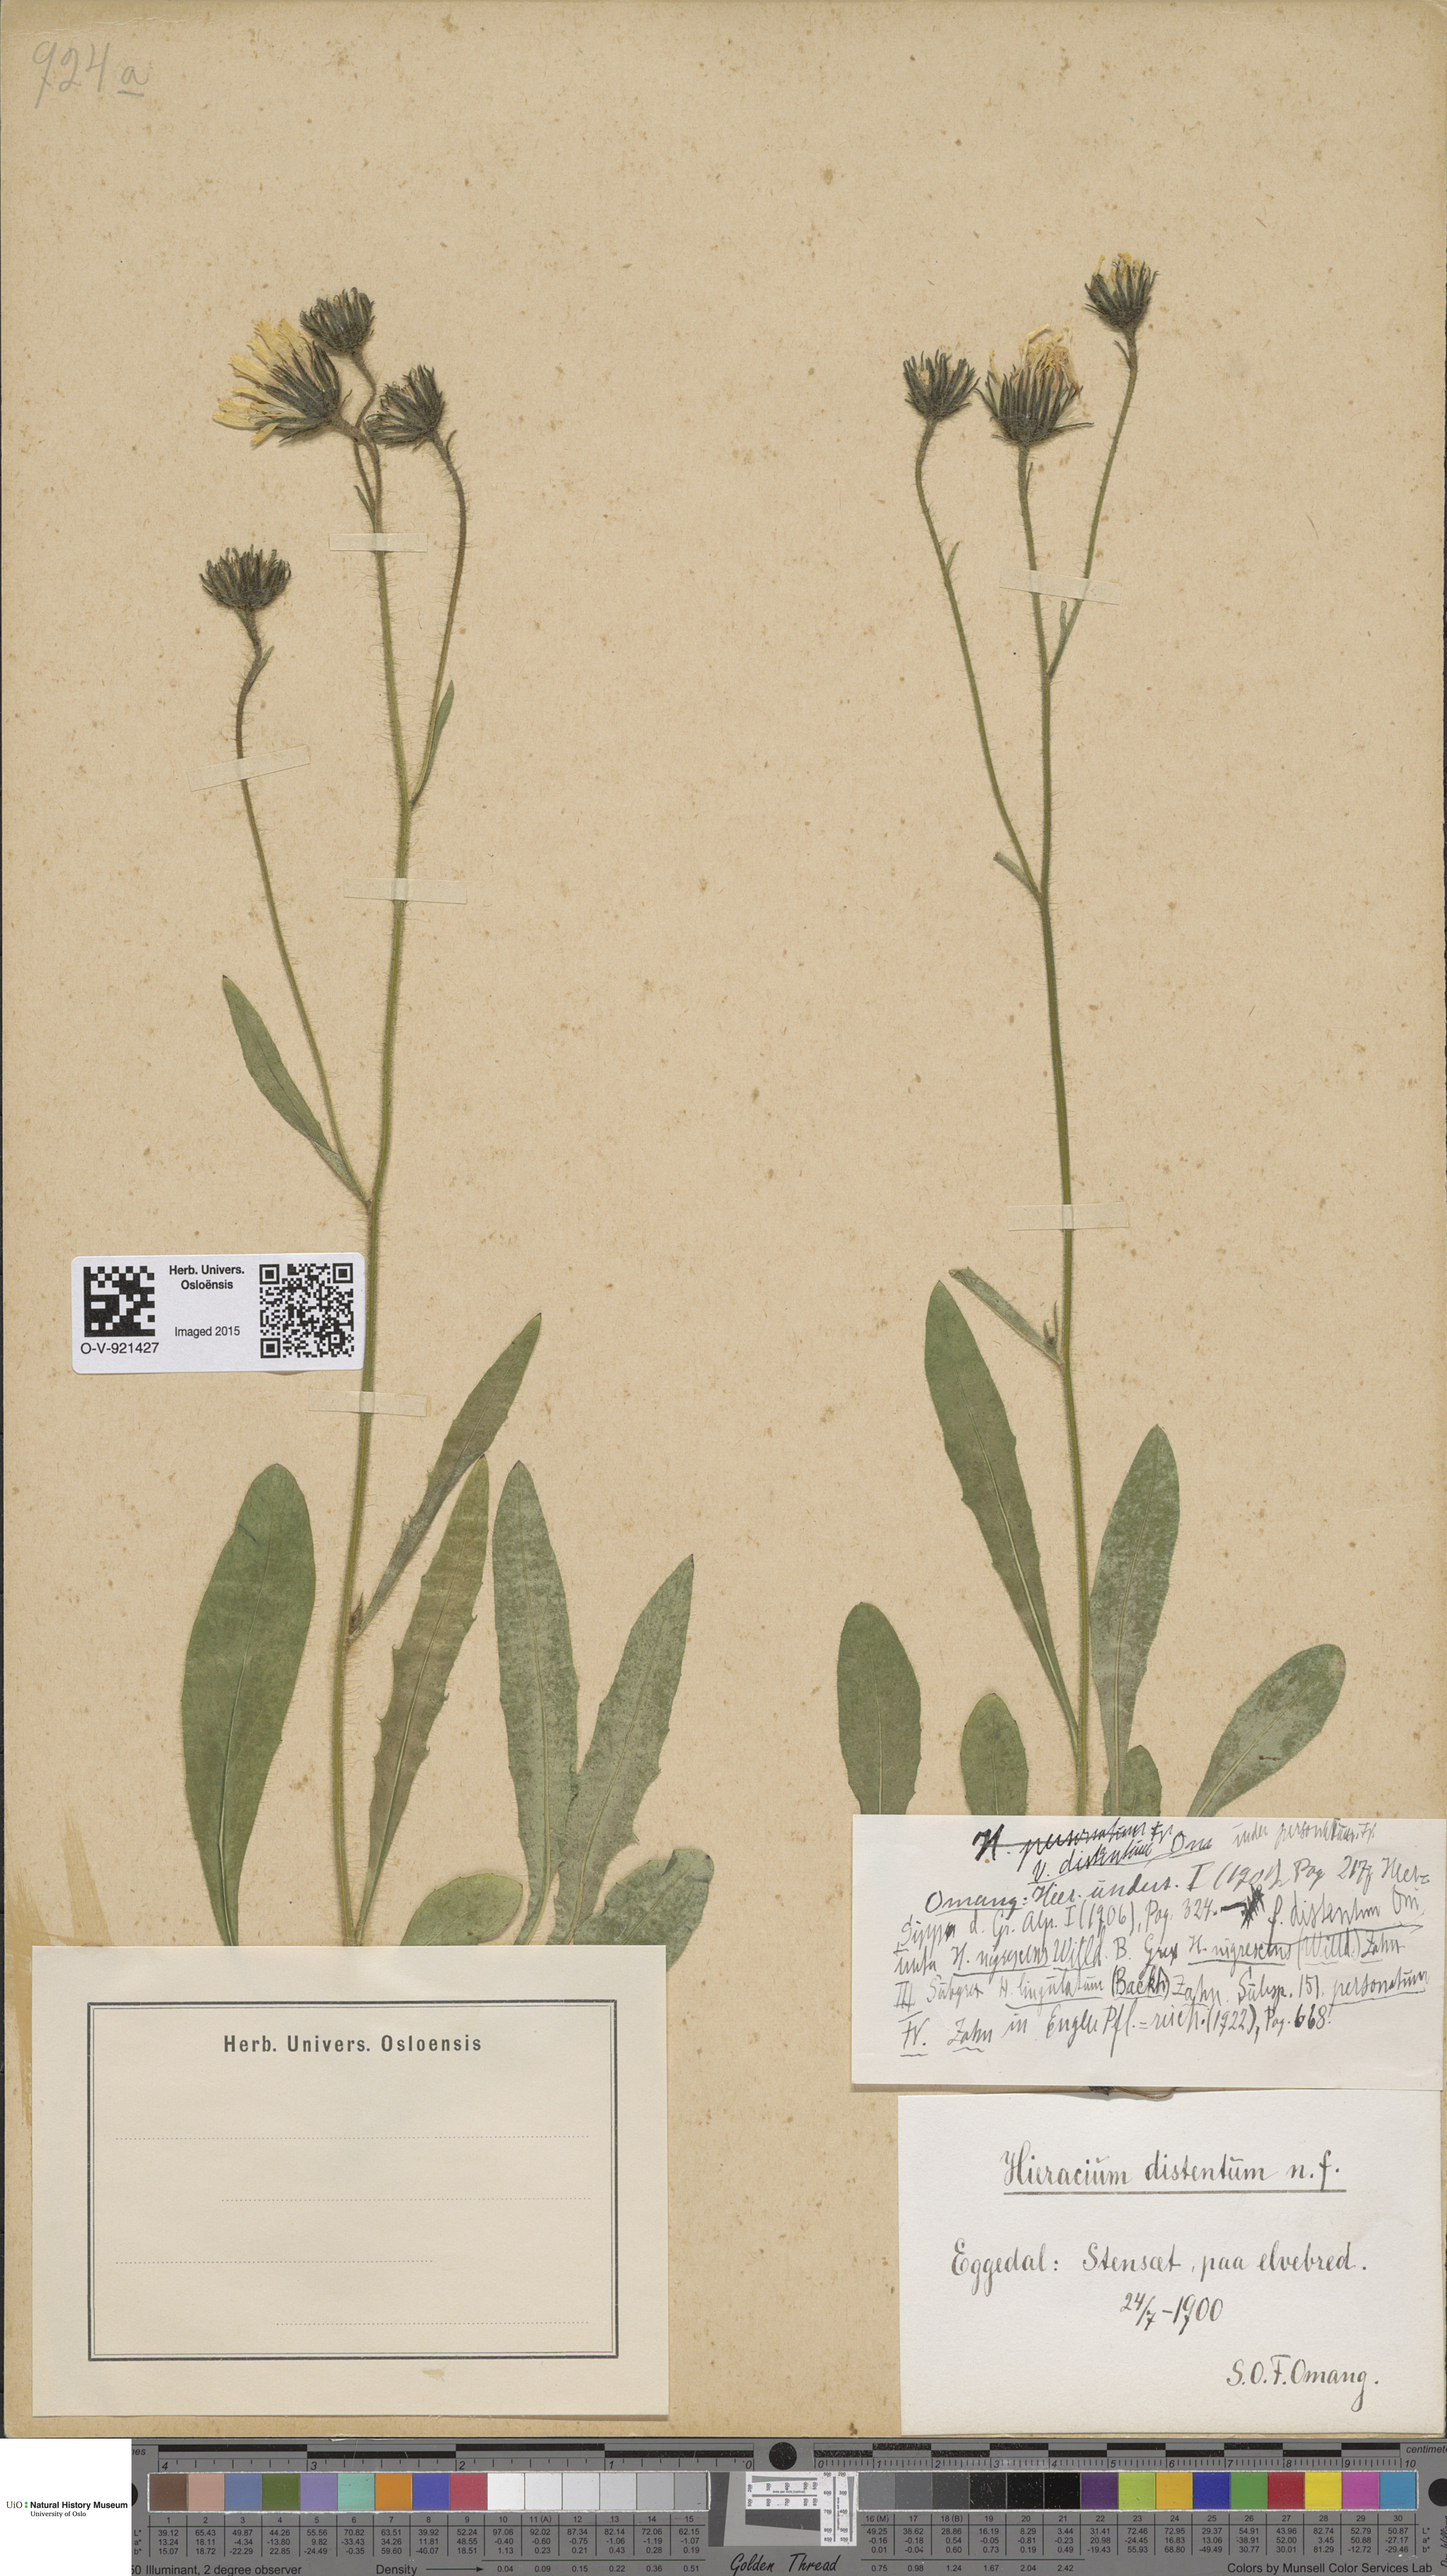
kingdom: Plantae
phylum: Tracheophyta
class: Magnoliopsida
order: Asterales
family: Asteraceae
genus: Hieracium
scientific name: Hieracium
